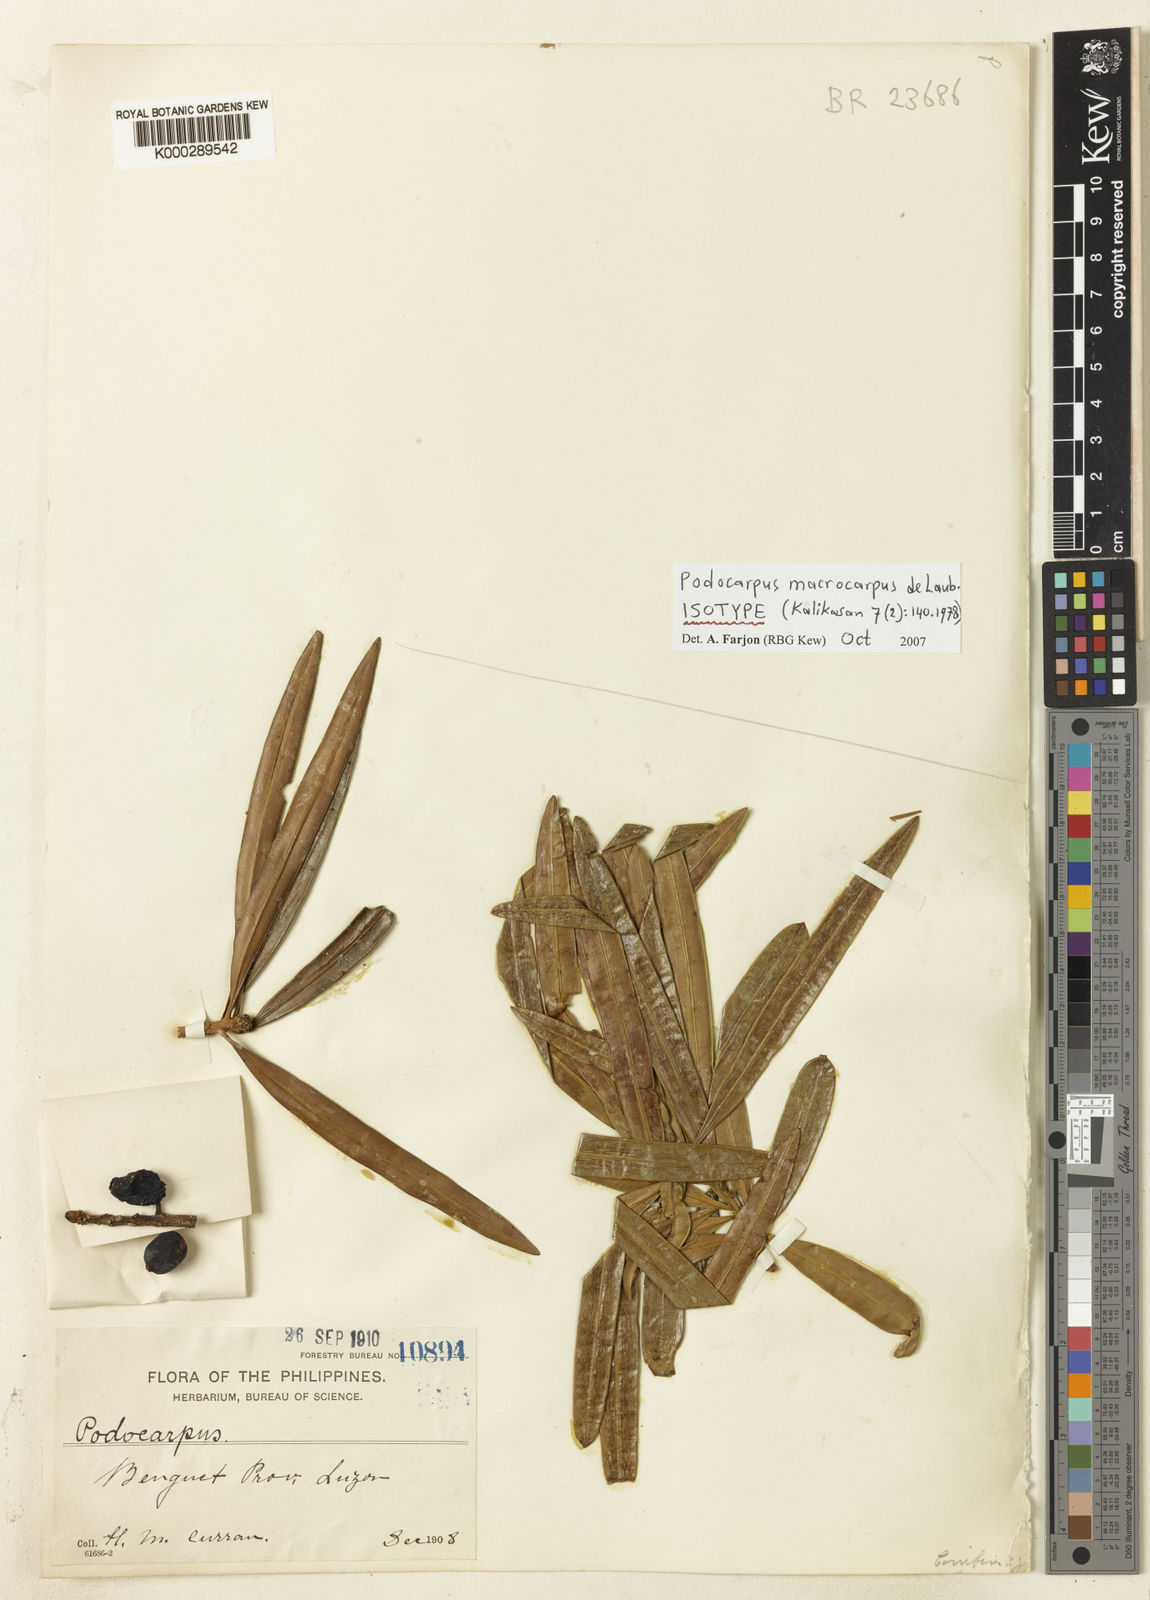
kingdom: Plantae
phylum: Tracheophyta
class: Pinopsida
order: Pinales
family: Podocarpaceae
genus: Podocarpus
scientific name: Podocarpus macrocarpus
